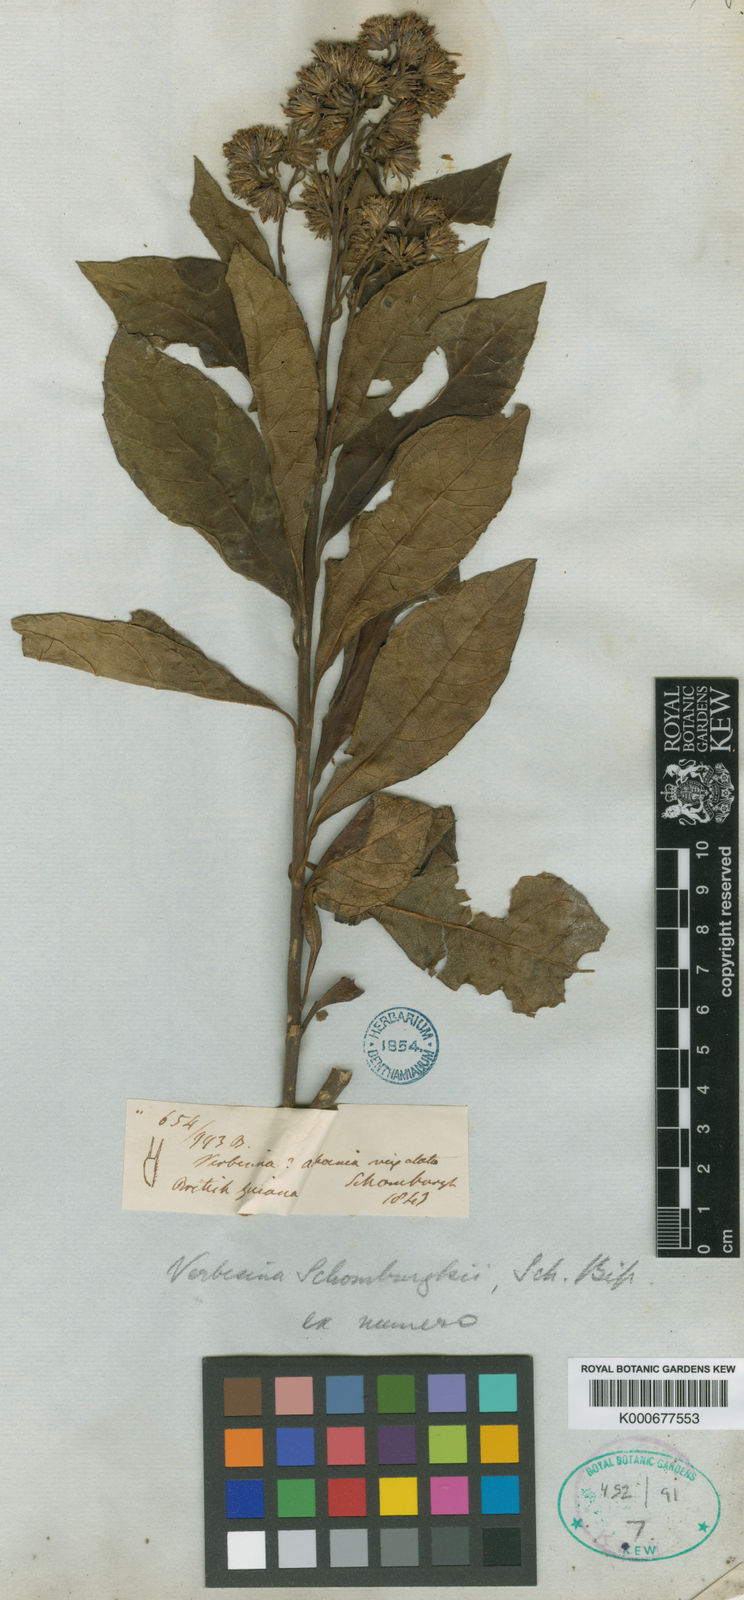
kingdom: Plantae
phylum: Tracheophyta
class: Magnoliopsida
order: Asterales
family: Asteraceae
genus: Verbesina
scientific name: Verbesina guianensis
